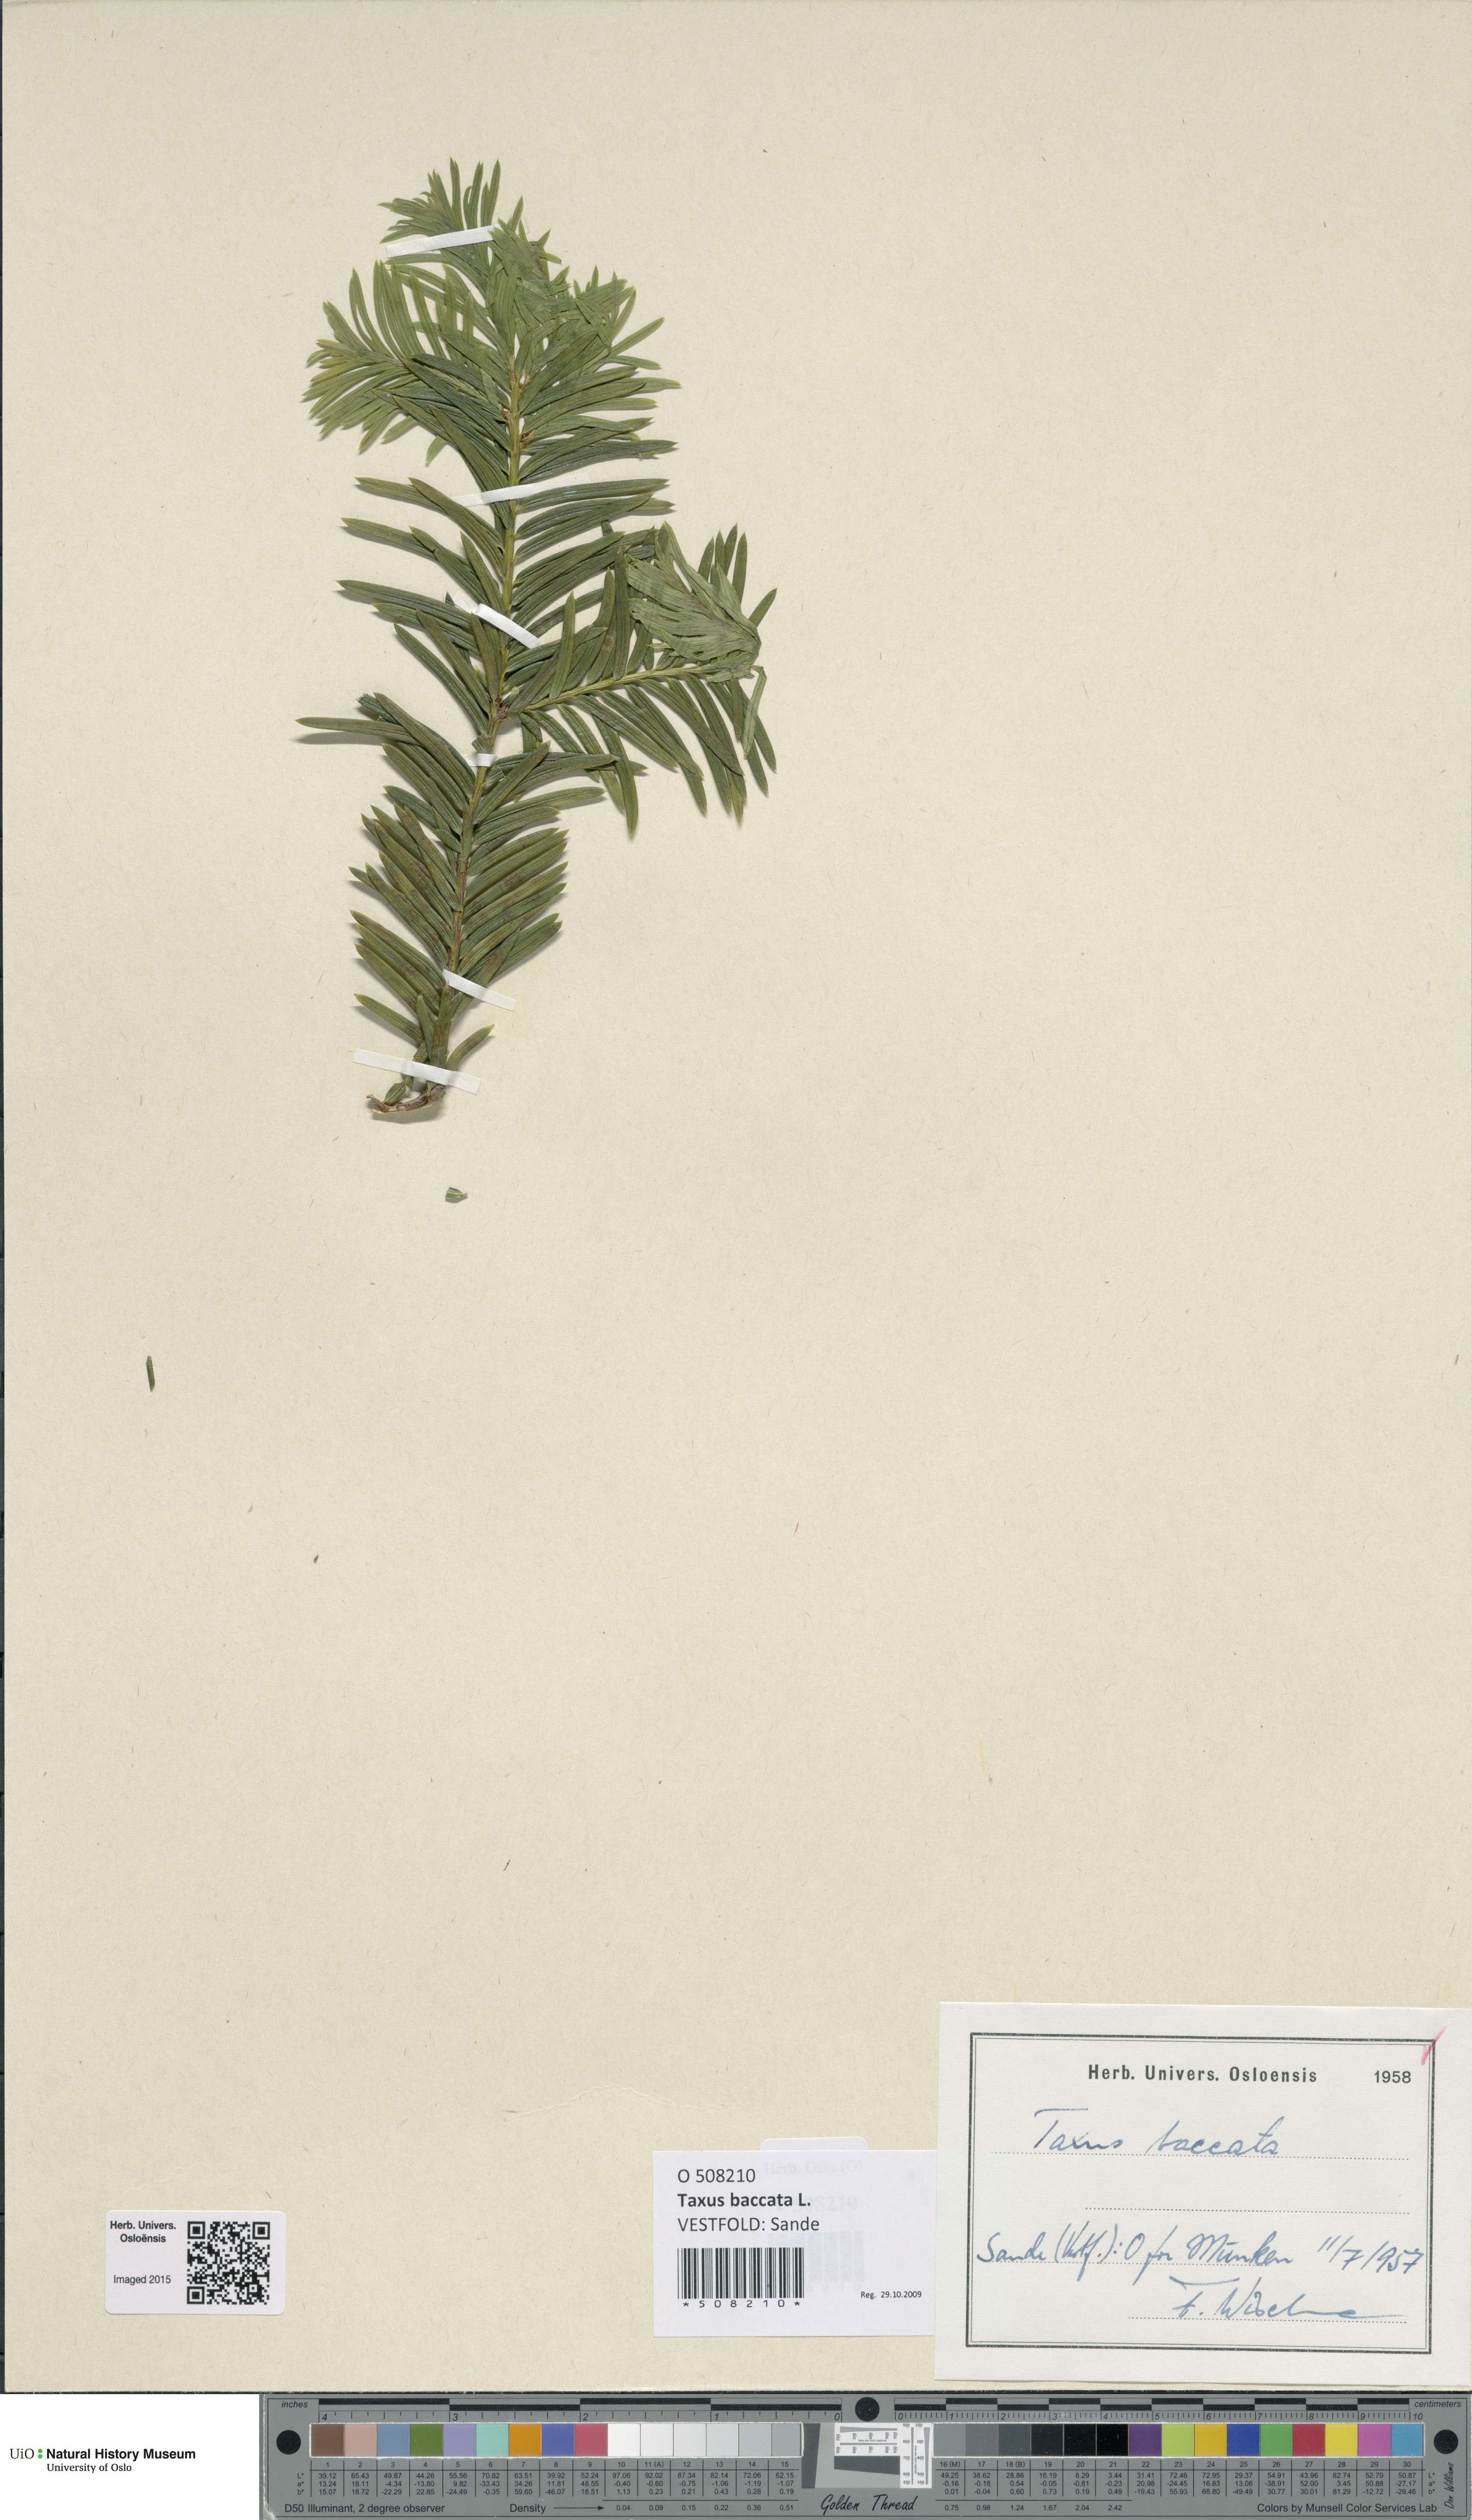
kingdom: Plantae
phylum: Tracheophyta
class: Pinopsida
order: Pinales
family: Taxaceae
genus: Taxus
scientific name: Taxus baccata
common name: Yew
